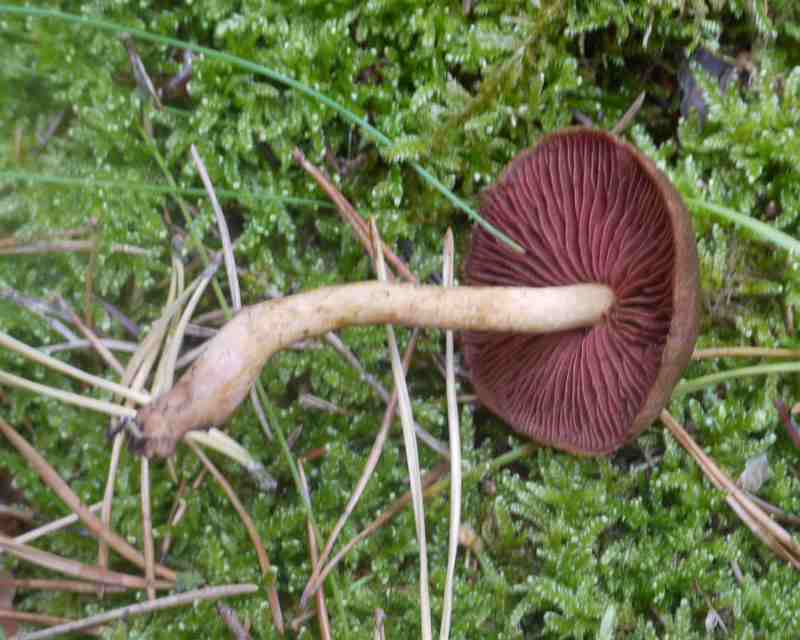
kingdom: Fungi
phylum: Basidiomycota
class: Agaricomycetes
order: Agaricales
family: Cortinariaceae
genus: Cortinarius
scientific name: Cortinarius
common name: cinnoberbladet slørhat
